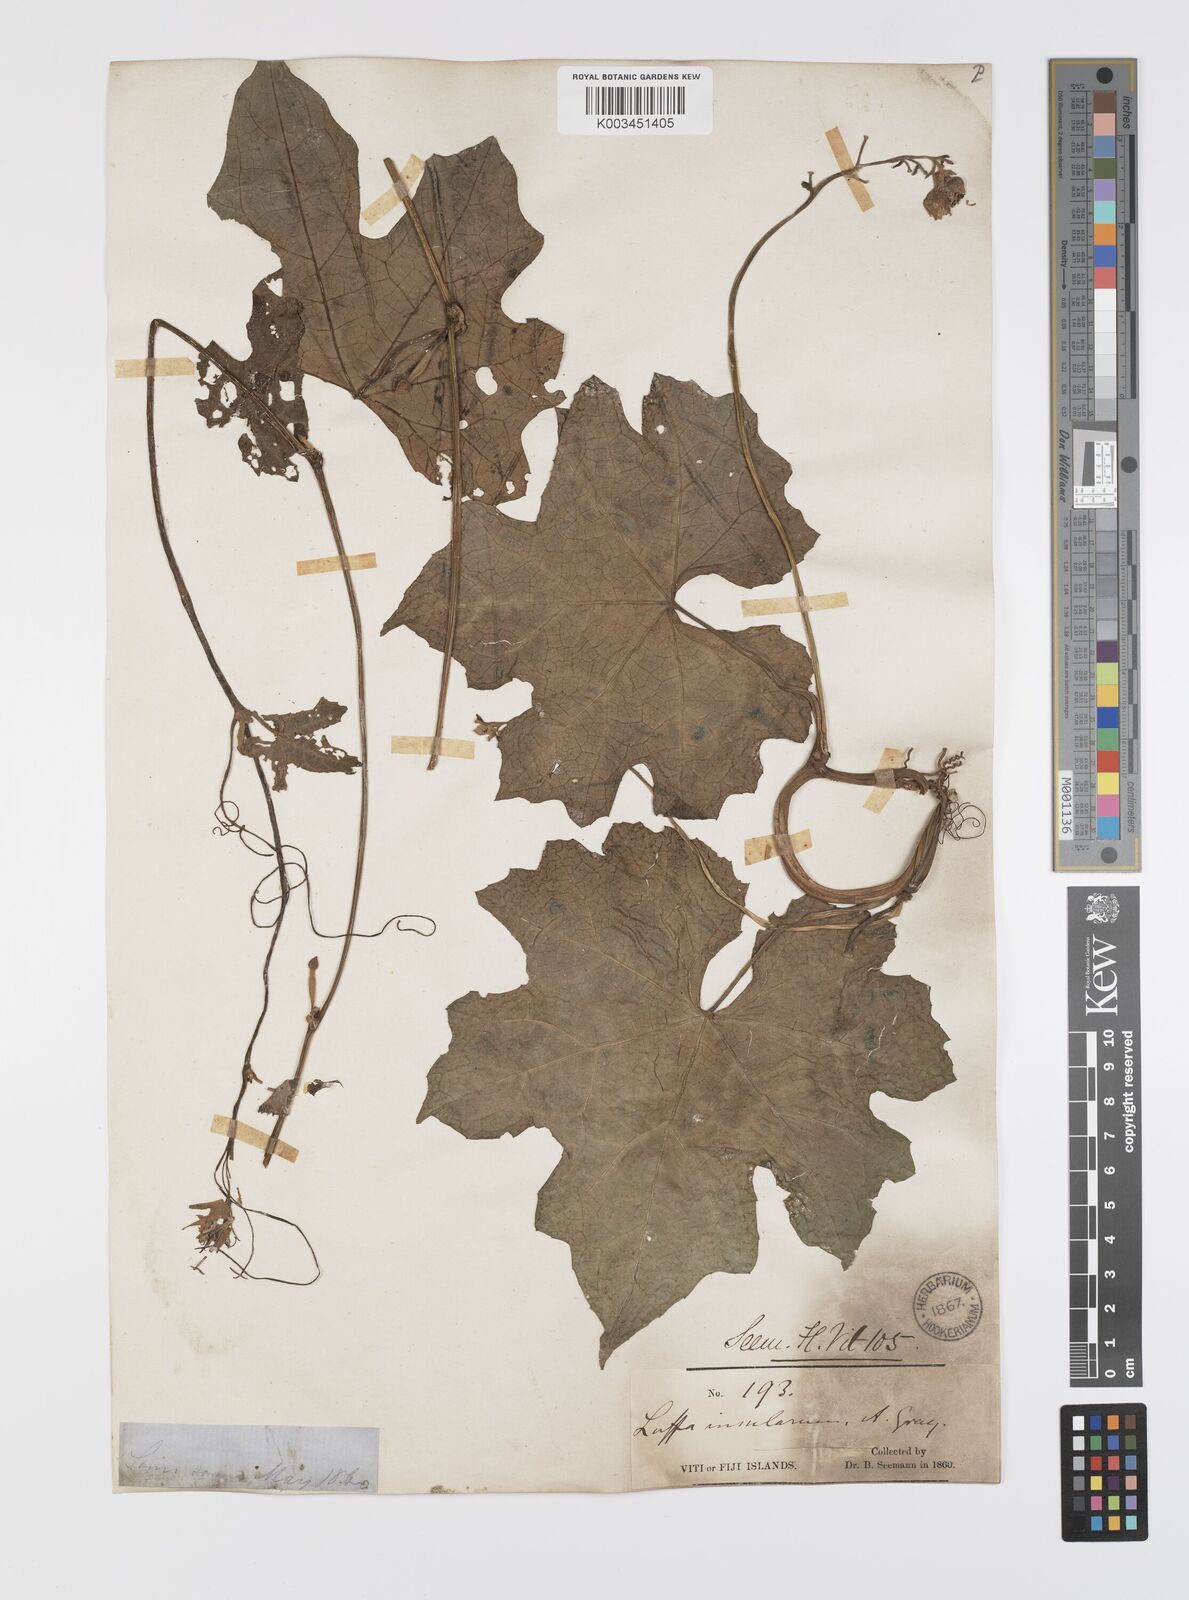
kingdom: Plantae
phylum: Tracheophyta
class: Magnoliopsida
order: Cucurbitales
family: Cucurbitaceae
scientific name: Cucurbitaceae
